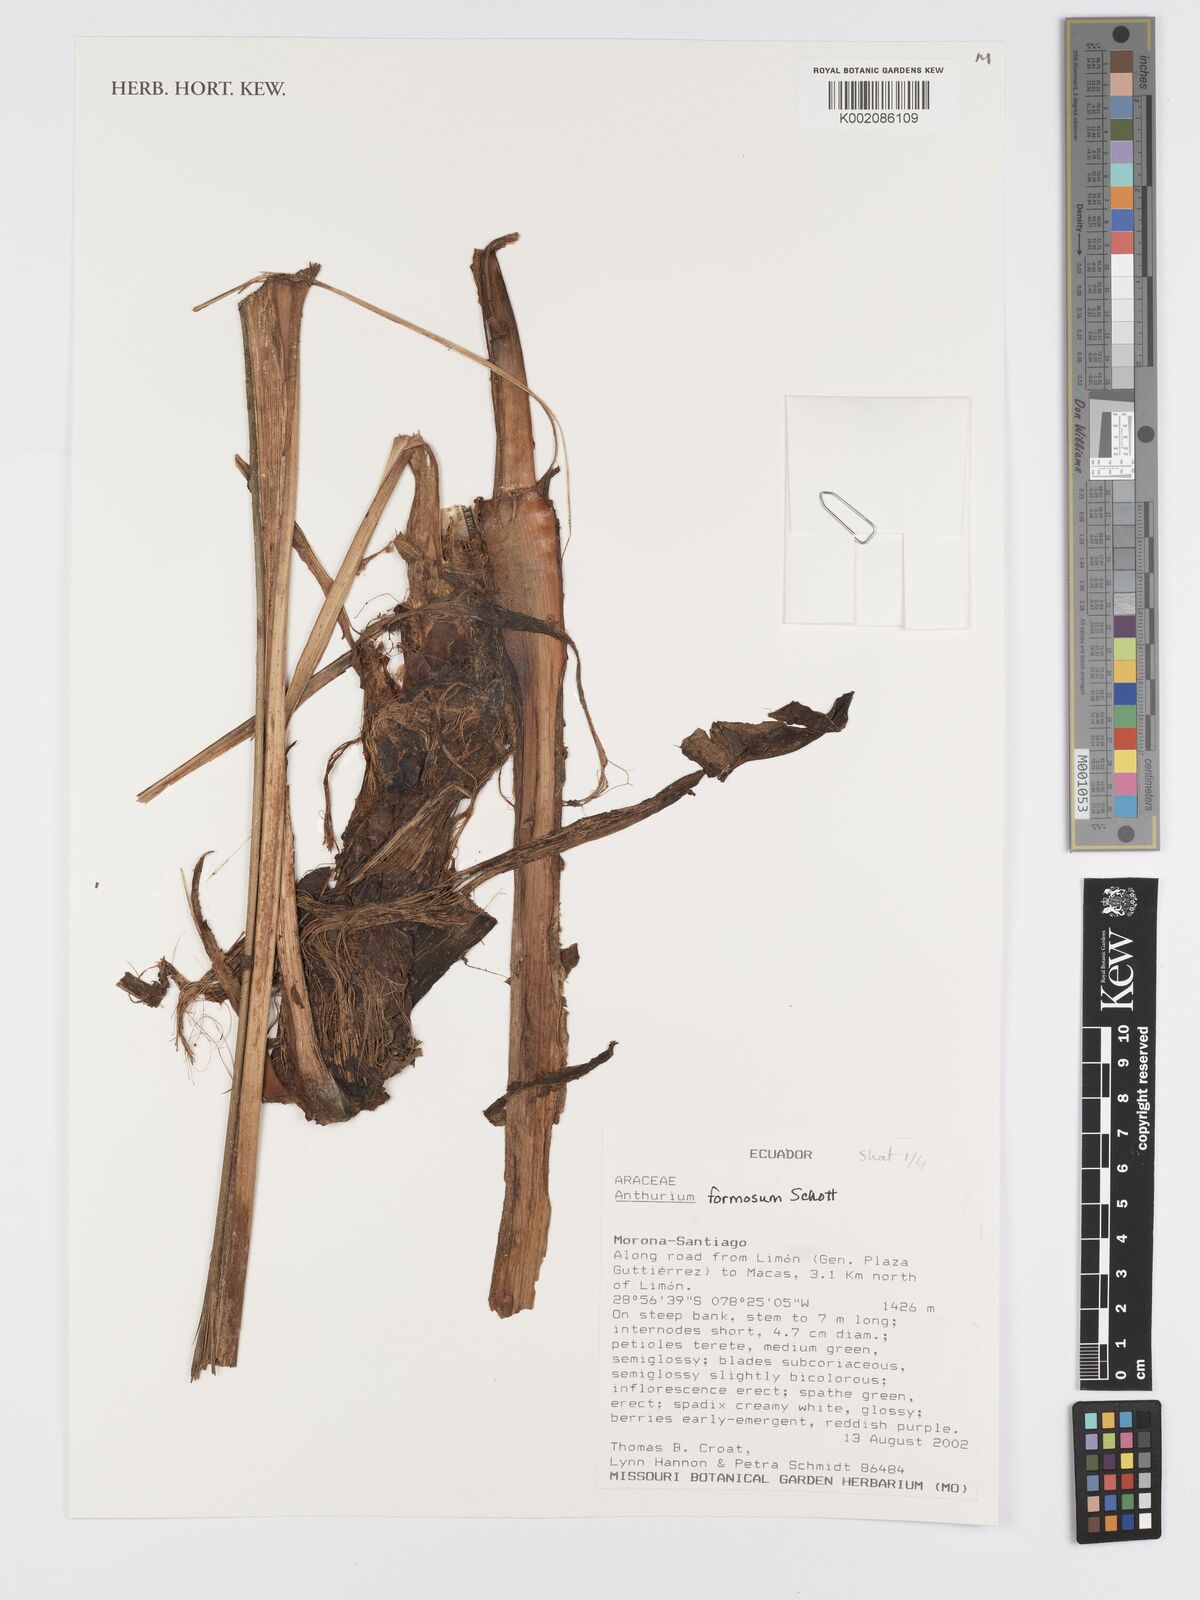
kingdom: Plantae
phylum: Tracheophyta
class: Liliopsida
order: Alismatales
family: Araceae
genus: Anthurium
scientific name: Anthurium formosum
